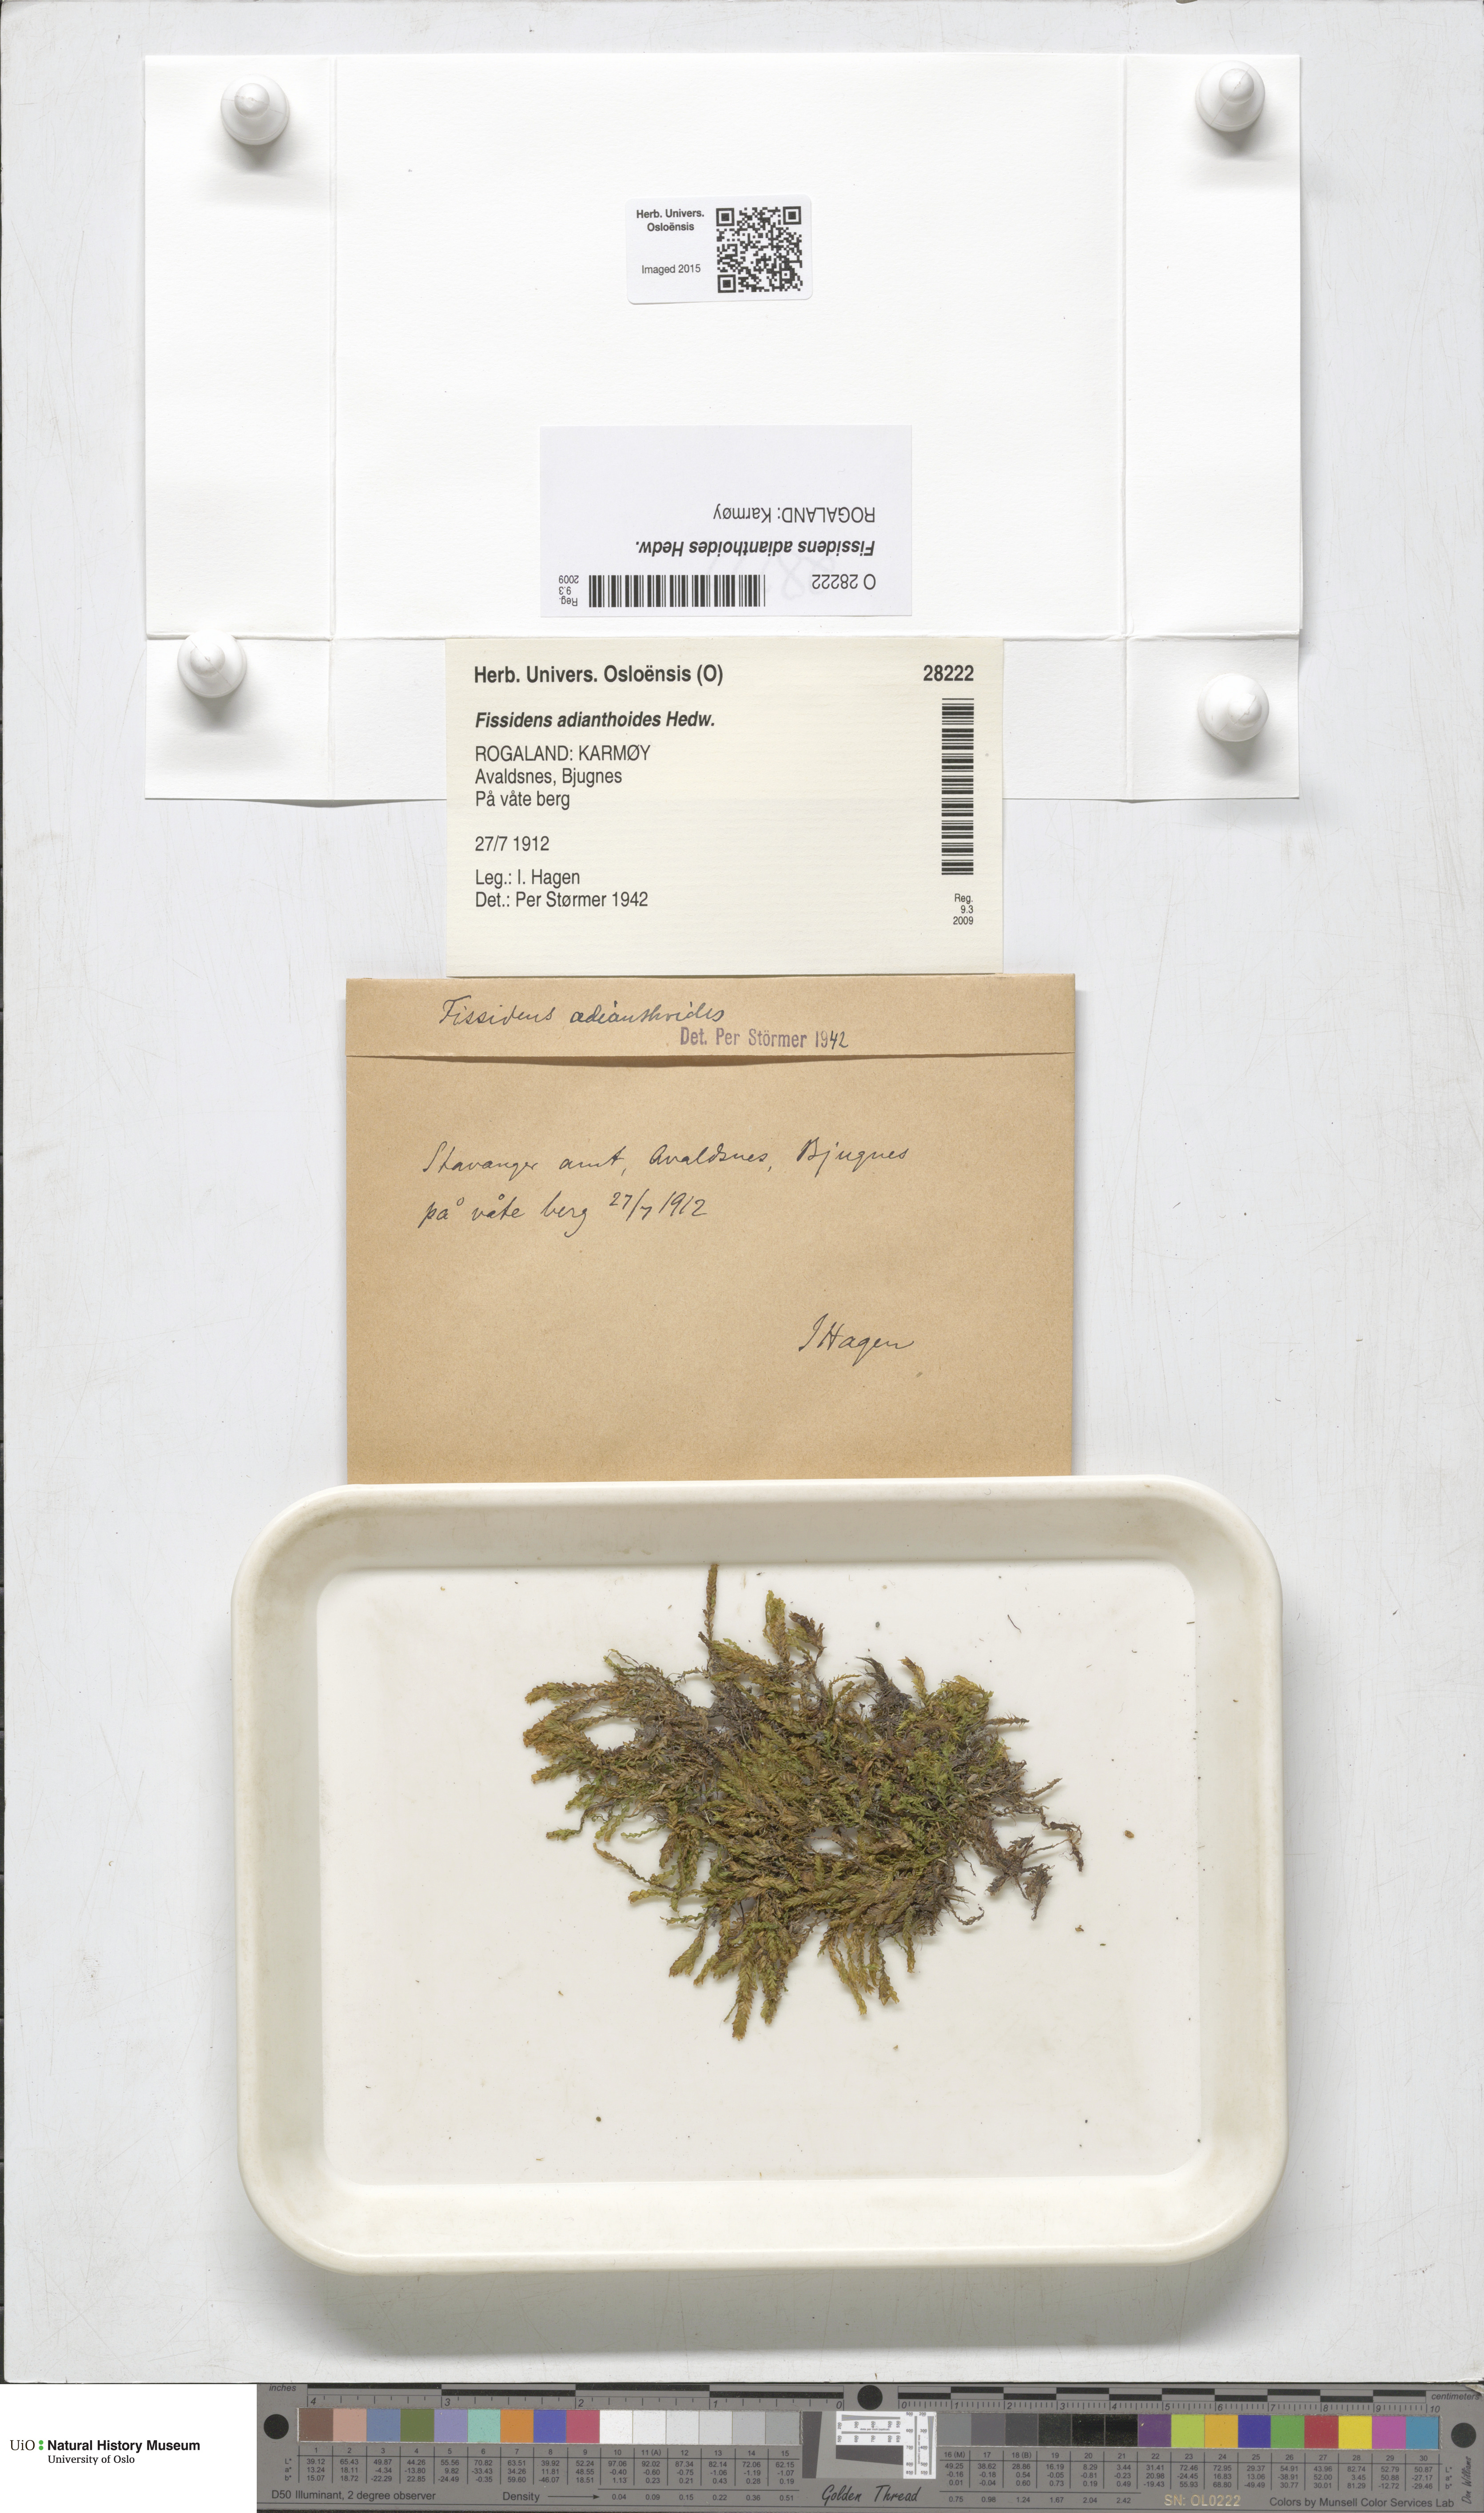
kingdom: Plantae
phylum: Bryophyta
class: Bryopsida
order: Dicranales
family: Fissidentaceae
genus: Fissidens
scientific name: Fissidens adianthoides
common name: Maidenhair pocket moss
